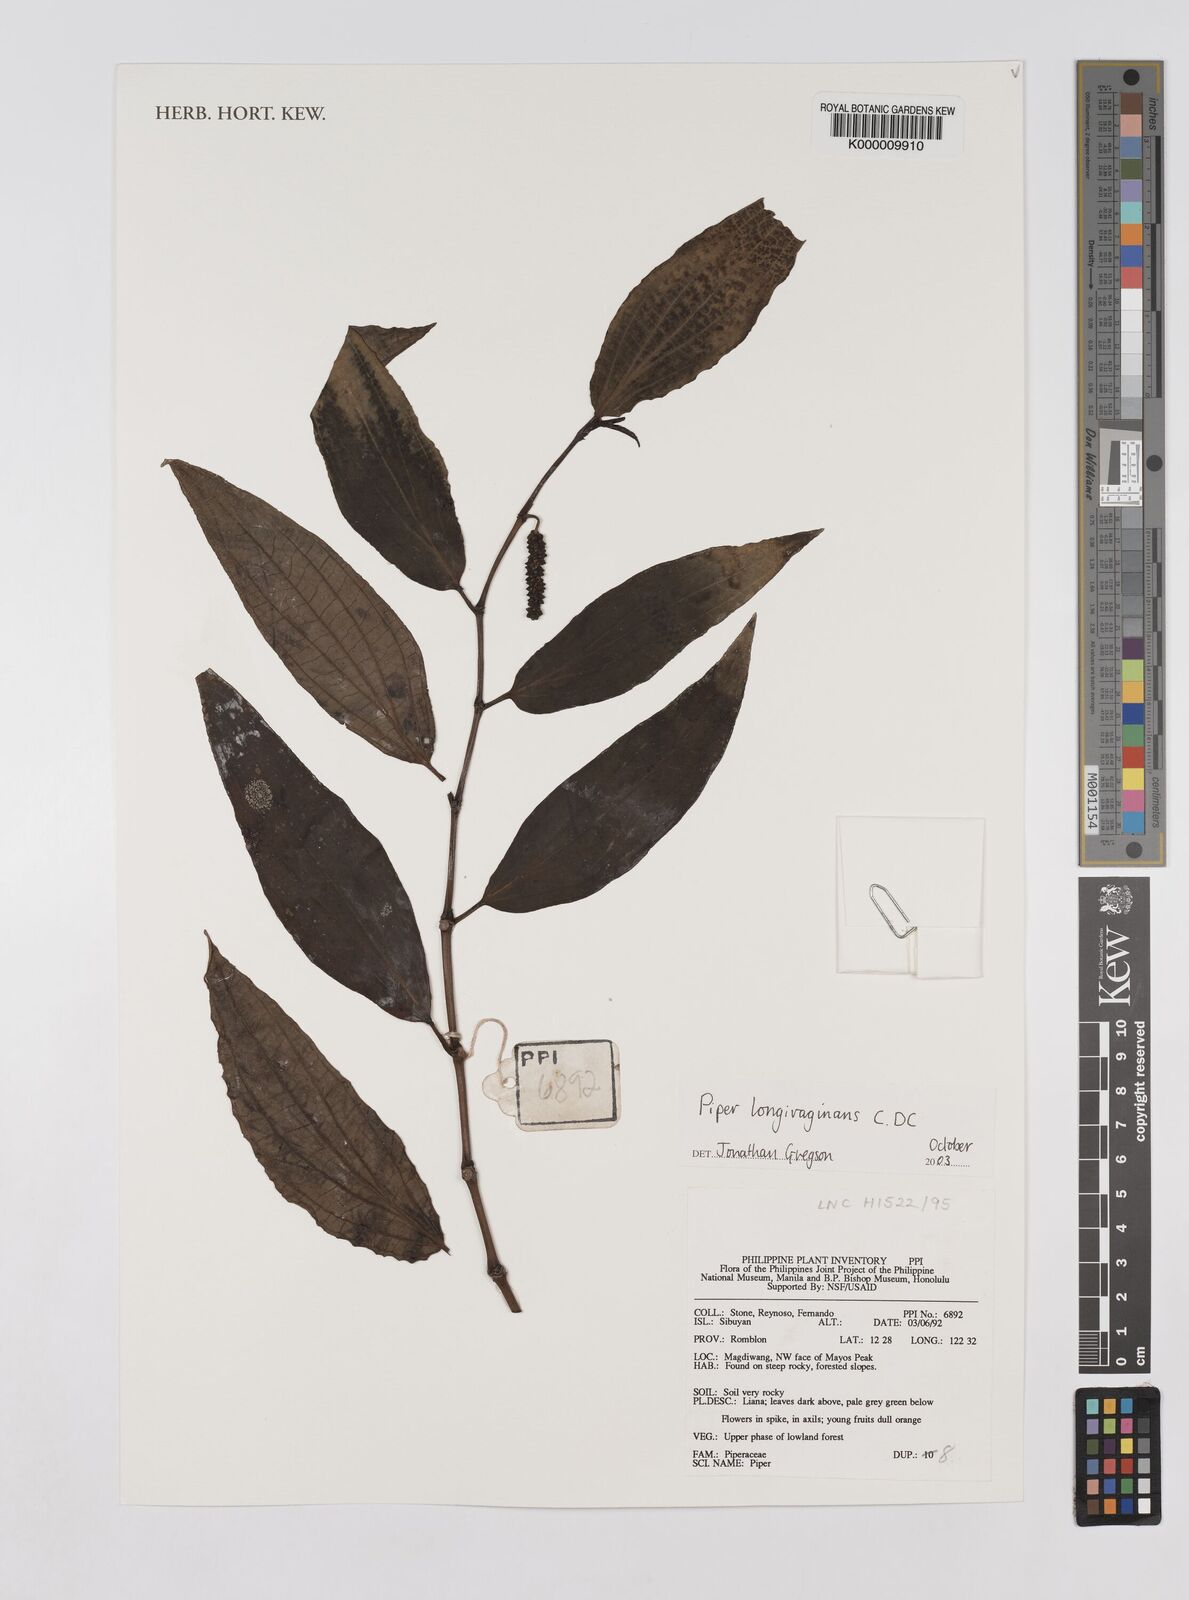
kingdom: Plantae
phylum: Tracheophyta
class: Magnoliopsida
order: Piperales
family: Piperaceae
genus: Piper
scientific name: Piper longivaginans
